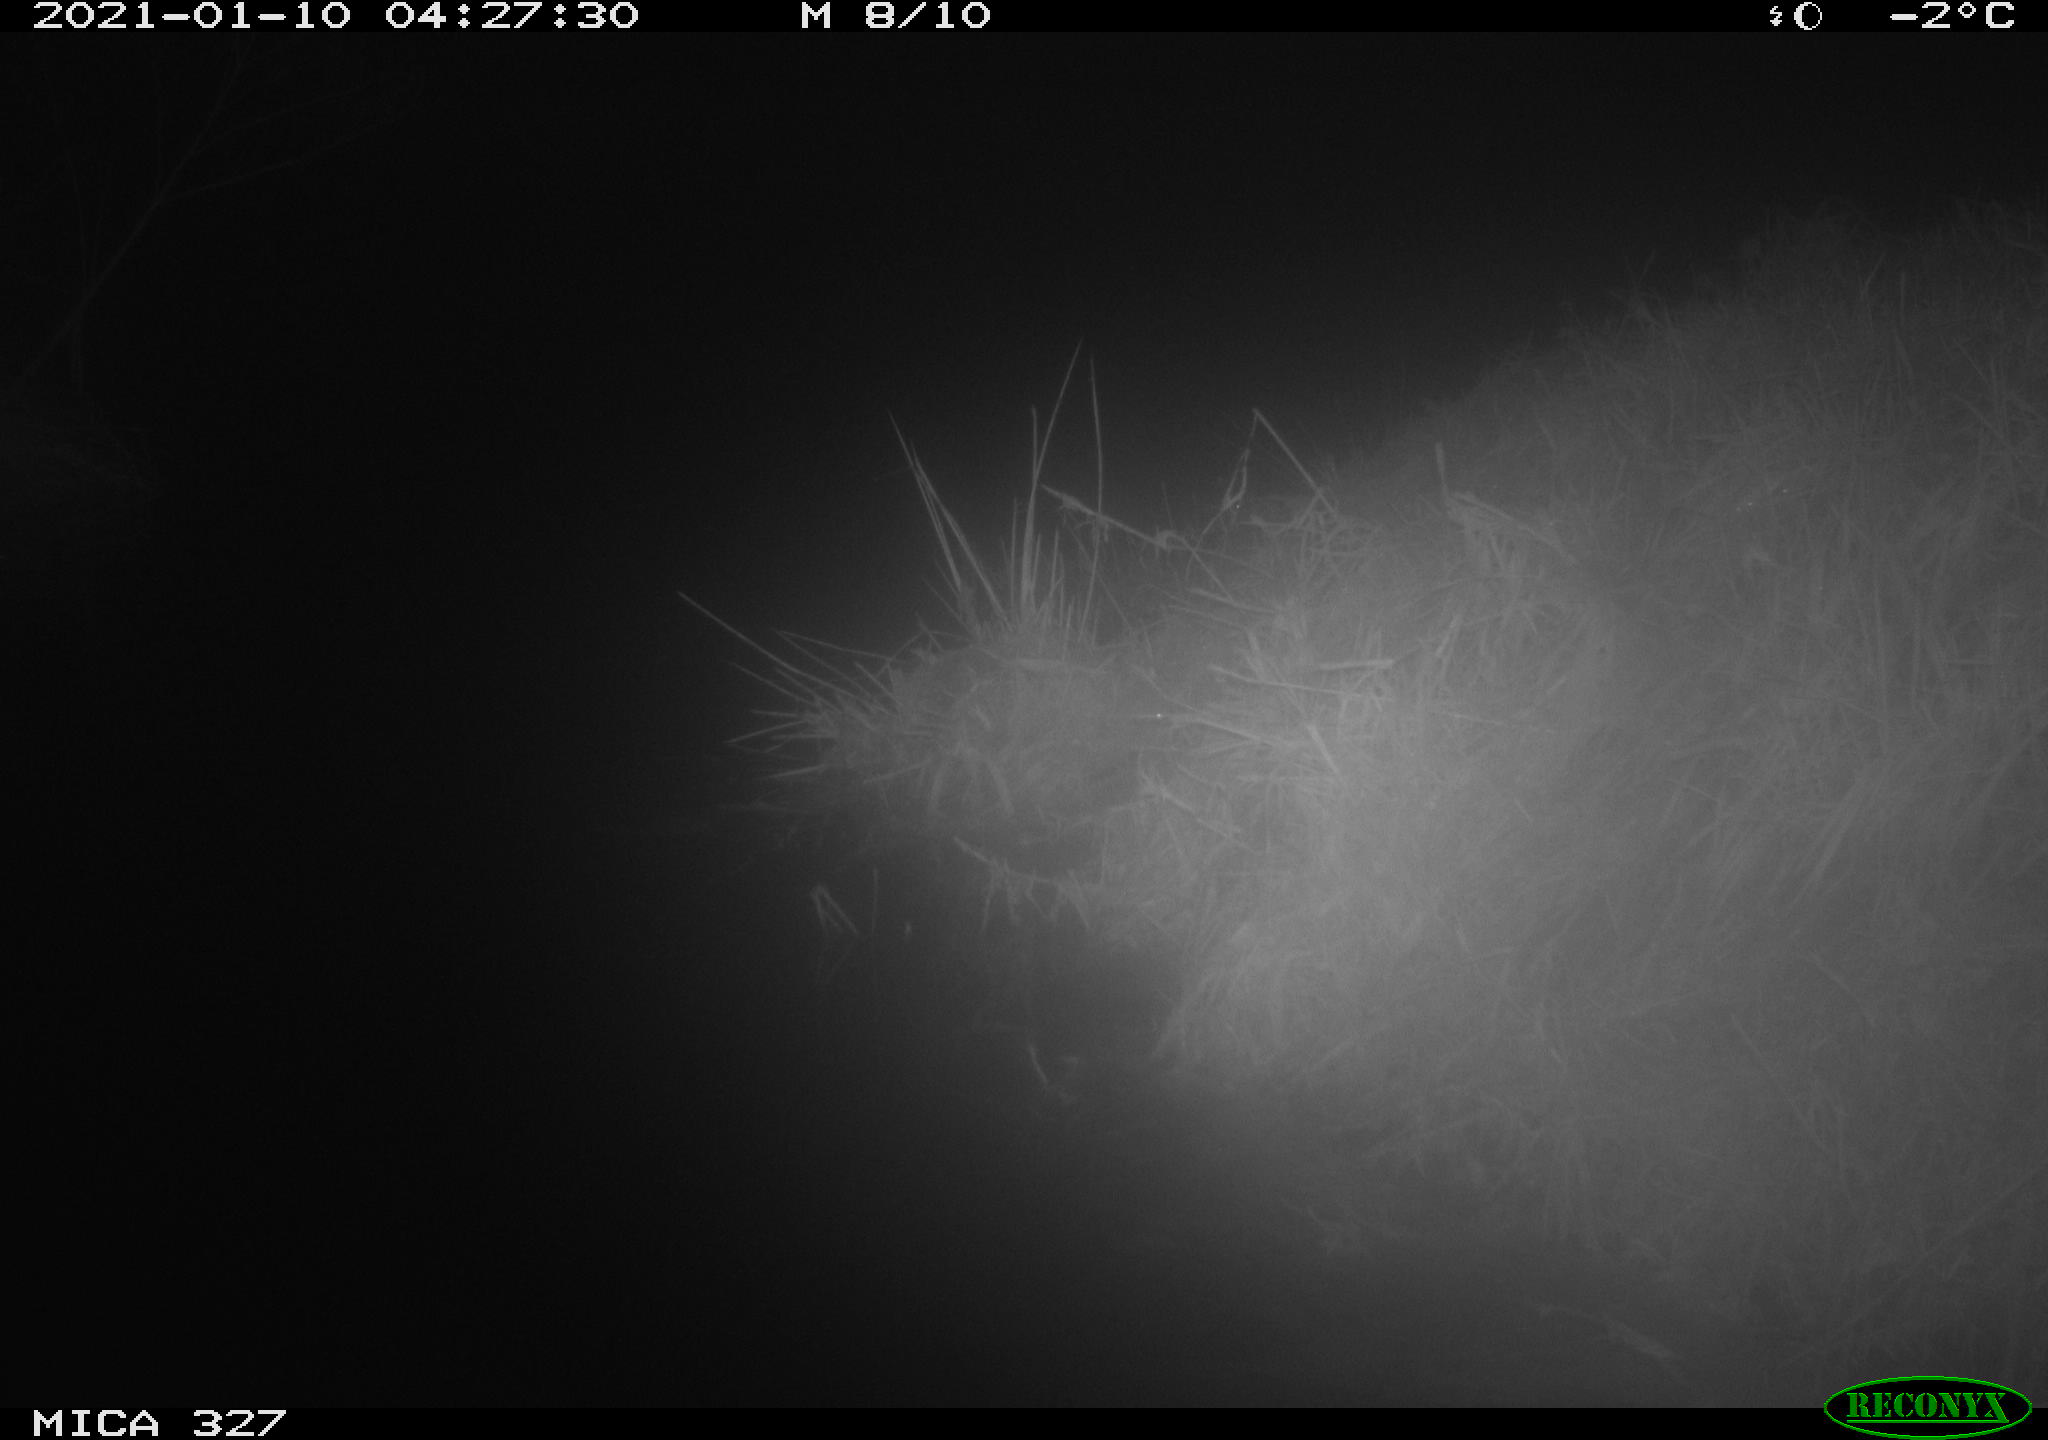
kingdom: Animalia
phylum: Chordata
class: Mammalia
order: Rodentia
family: Myocastoridae
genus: Myocastor
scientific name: Myocastor coypus
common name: Coypu
